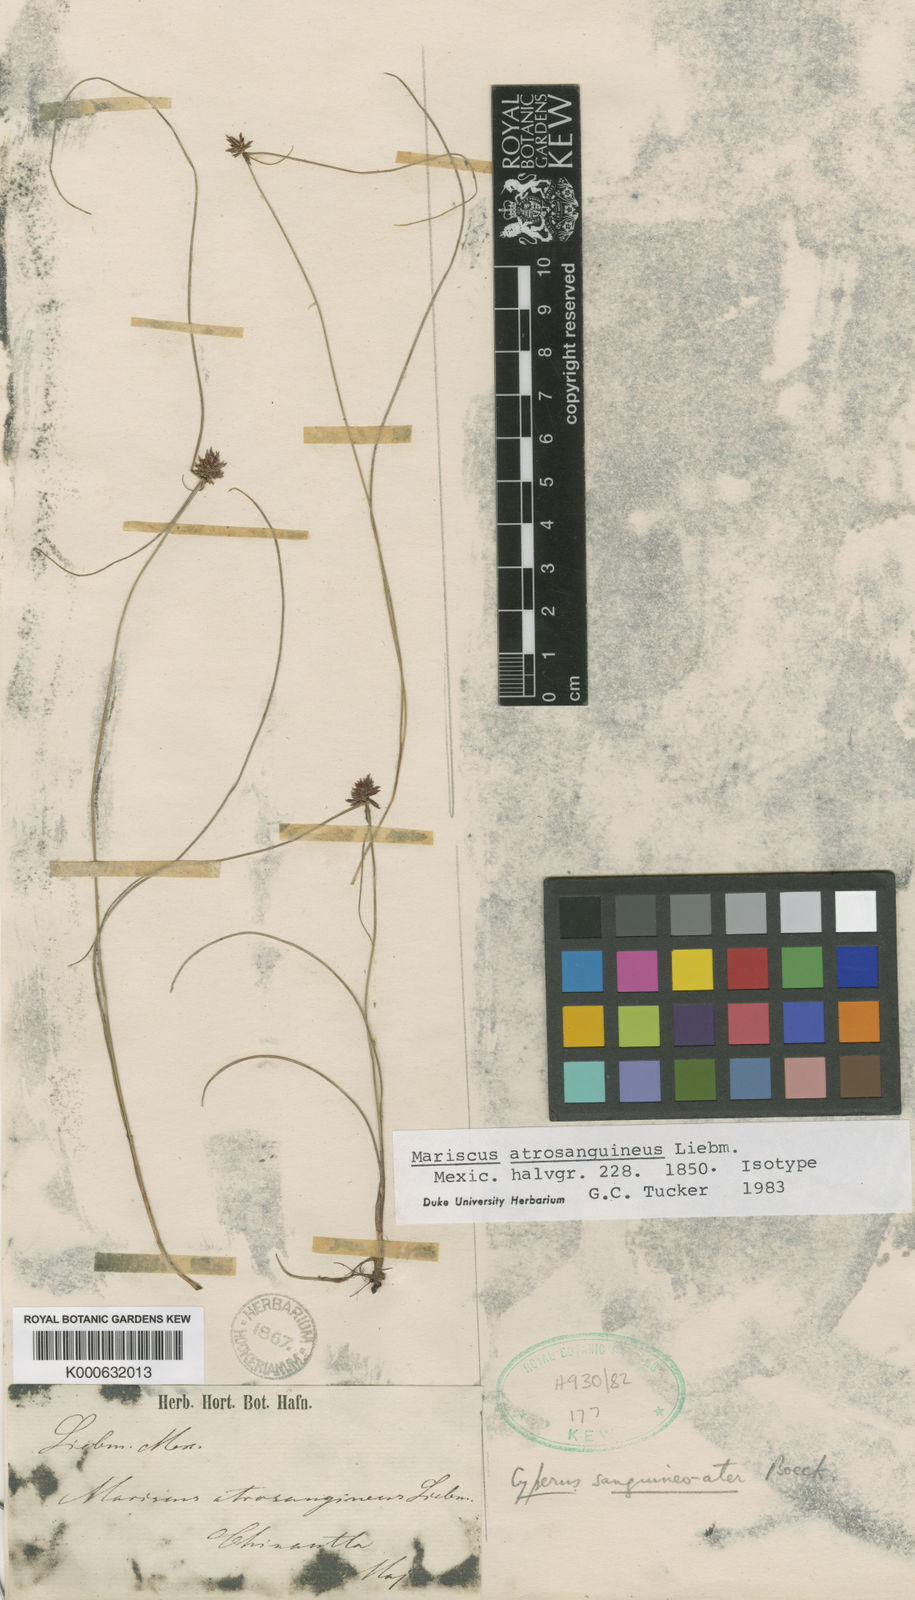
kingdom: Plantae
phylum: Tracheophyta
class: Liliopsida
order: Poales
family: Cyperaceae
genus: Cyperus
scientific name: Cyperus sanguineoater
